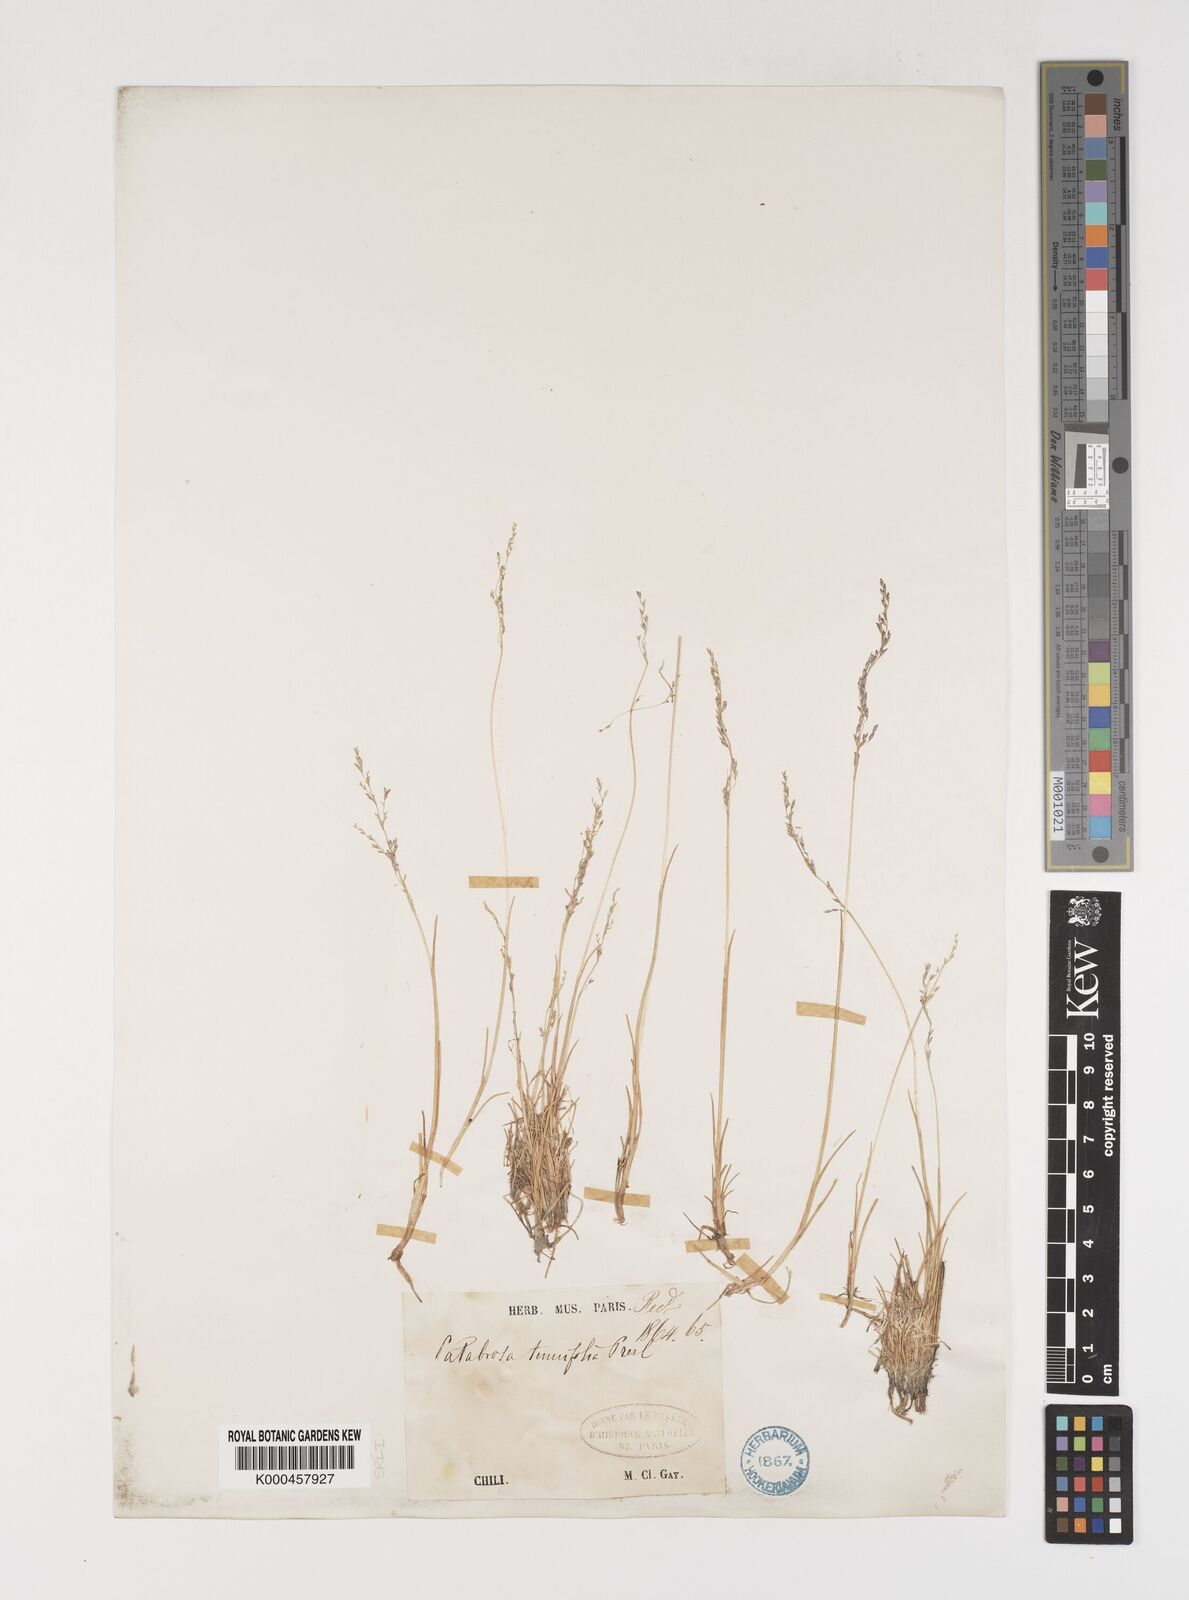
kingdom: Plantae
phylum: Tracheophyta
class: Liliopsida
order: Poales
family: Poaceae
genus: Puccinellia
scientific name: Puccinellia pusilla
